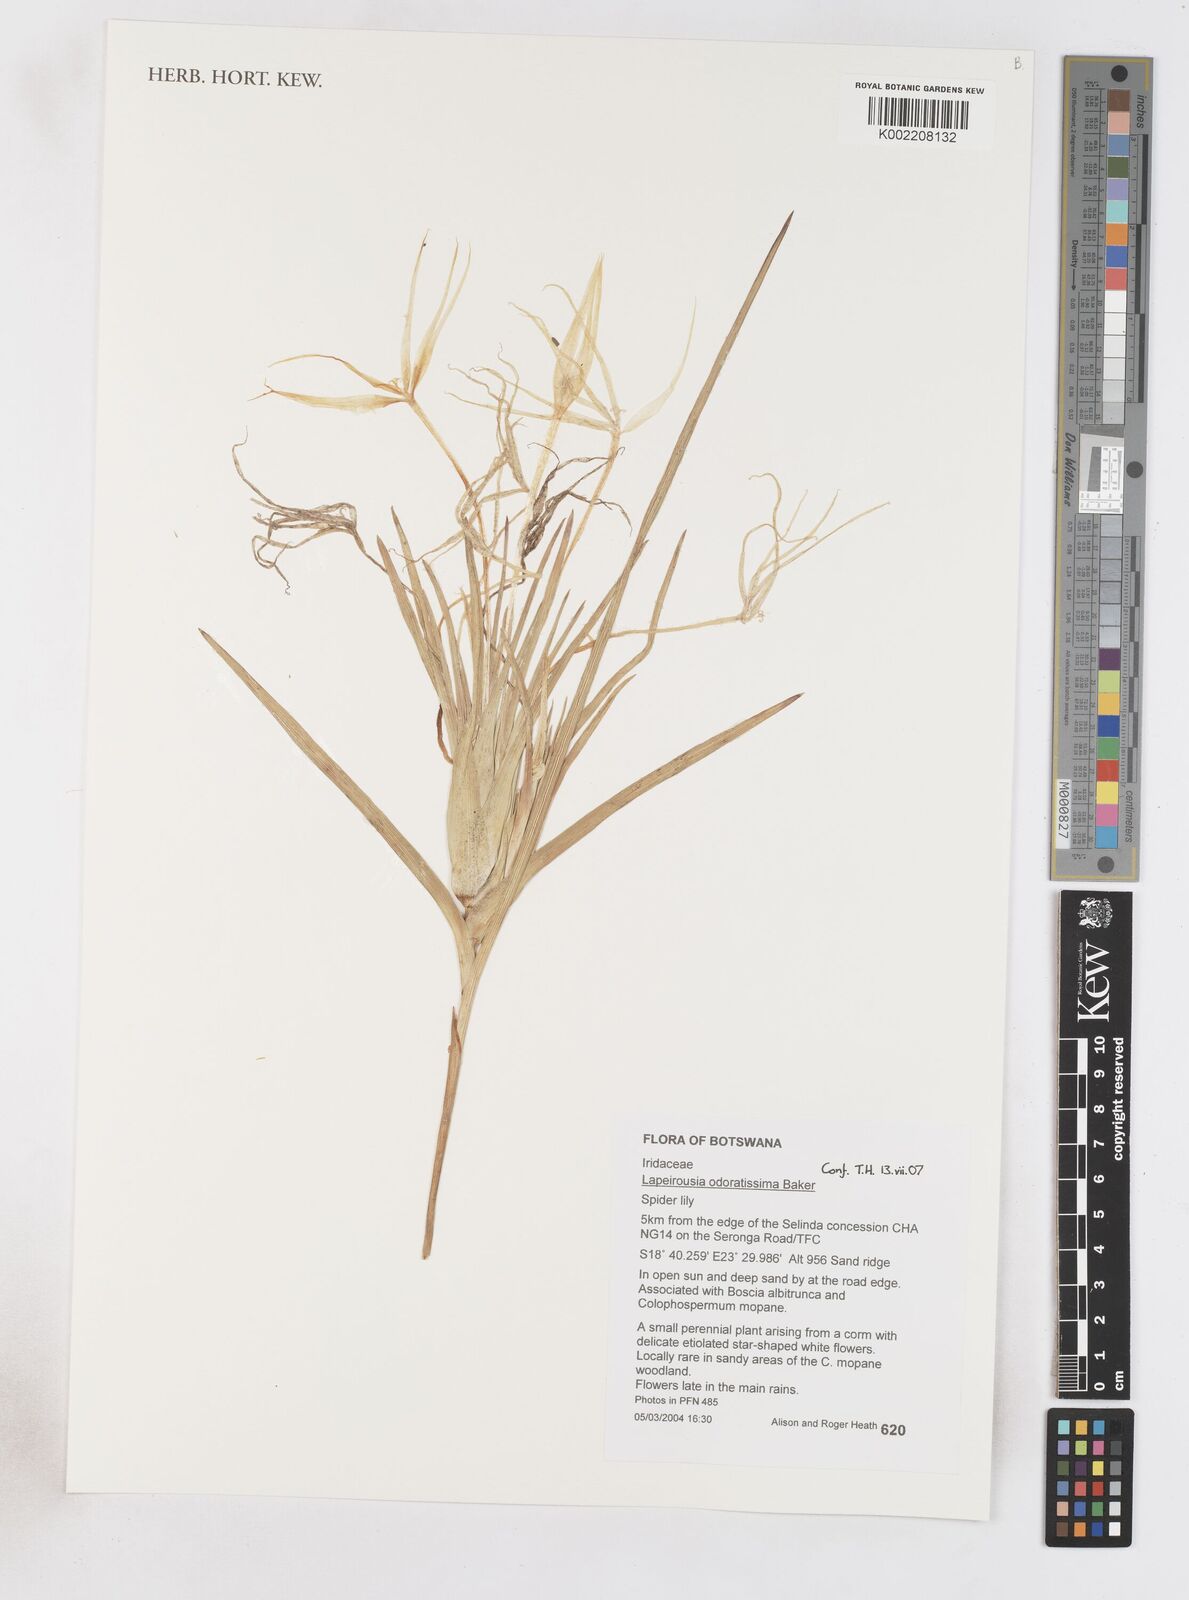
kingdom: Plantae
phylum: Tracheophyta
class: Liliopsida
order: Asparagales
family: Iridaceae
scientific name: Iridaceae
